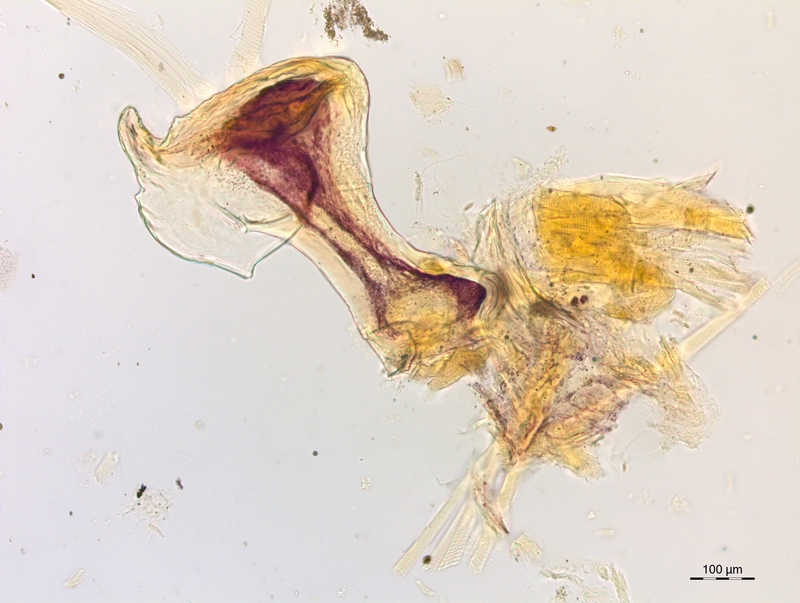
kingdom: Animalia
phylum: Arthropoda
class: Diplopoda
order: Chordeumatida
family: Craspedosomatidae
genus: Craspedosoma
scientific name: Craspedosoma doranum
